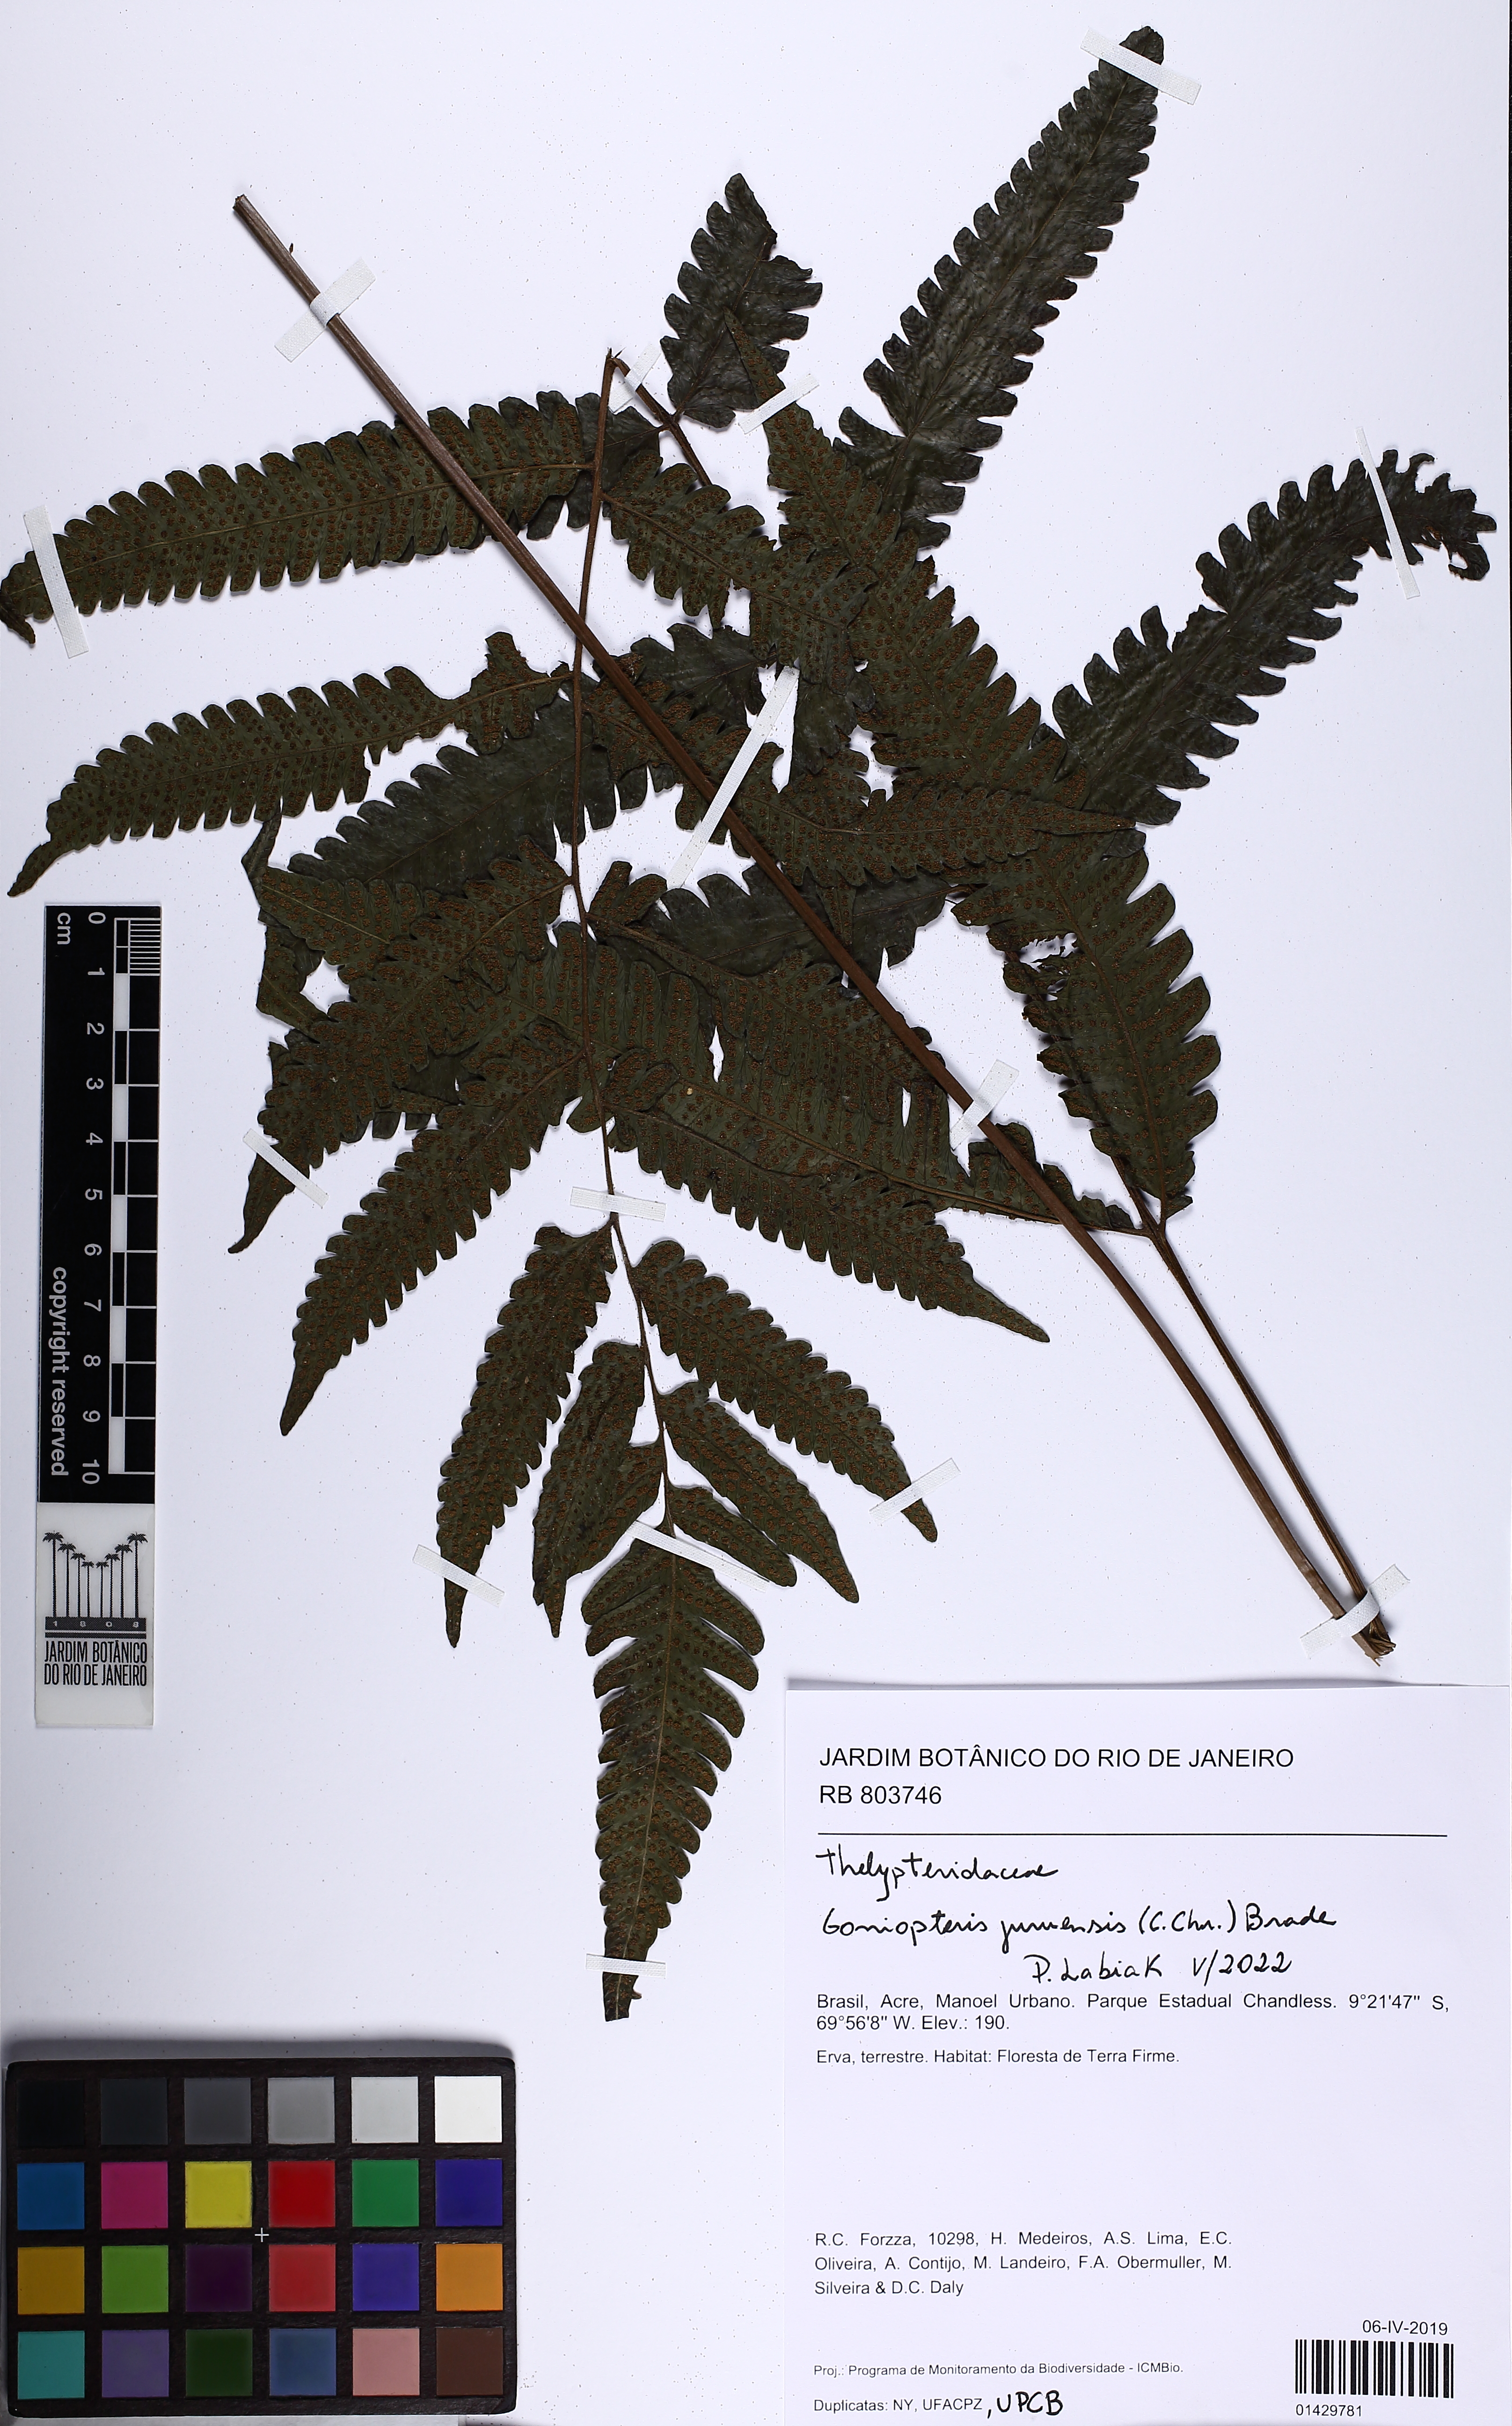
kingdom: Plantae
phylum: Tracheophyta
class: Polypodiopsida
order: Polypodiales
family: Thelypteridaceae
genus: Goniopteris
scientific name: Goniopteris juruensis
